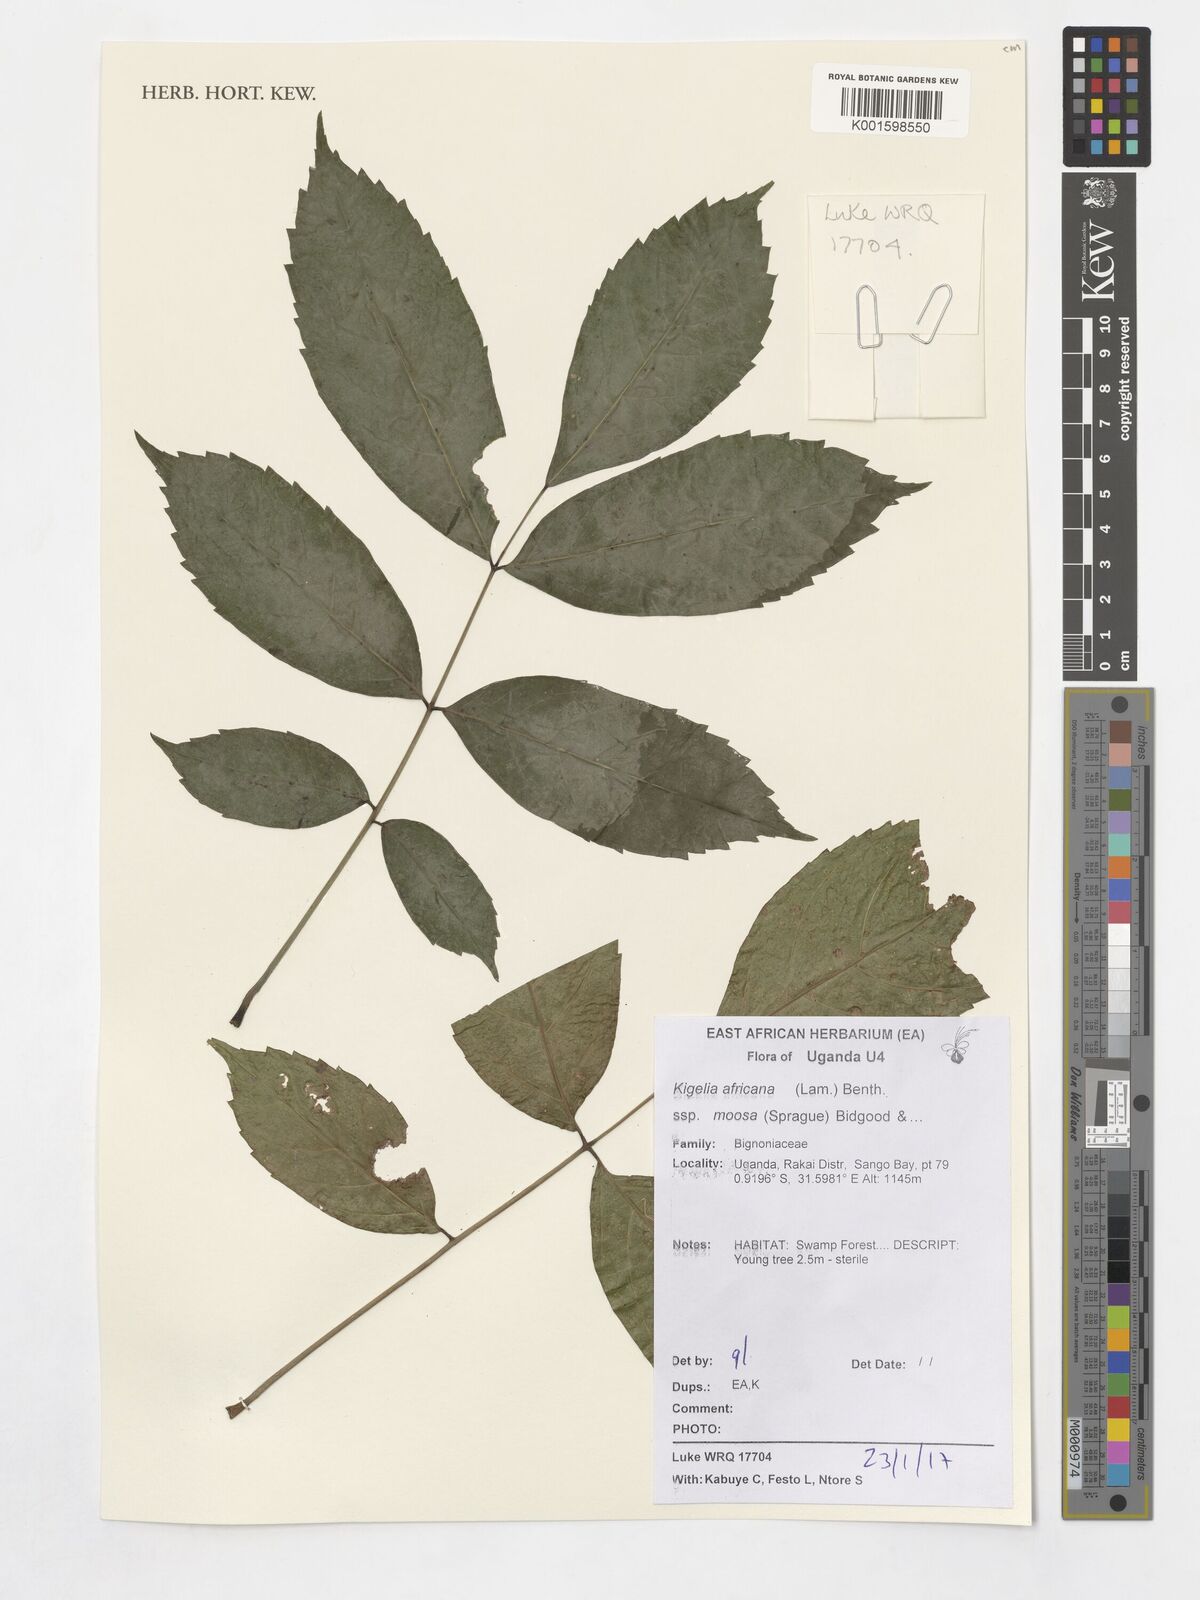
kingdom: Plantae
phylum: Tracheophyta
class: Magnoliopsida
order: Lamiales
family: Bignoniaceae
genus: Kigelia
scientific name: Kigelia africana
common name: Sausage tree
